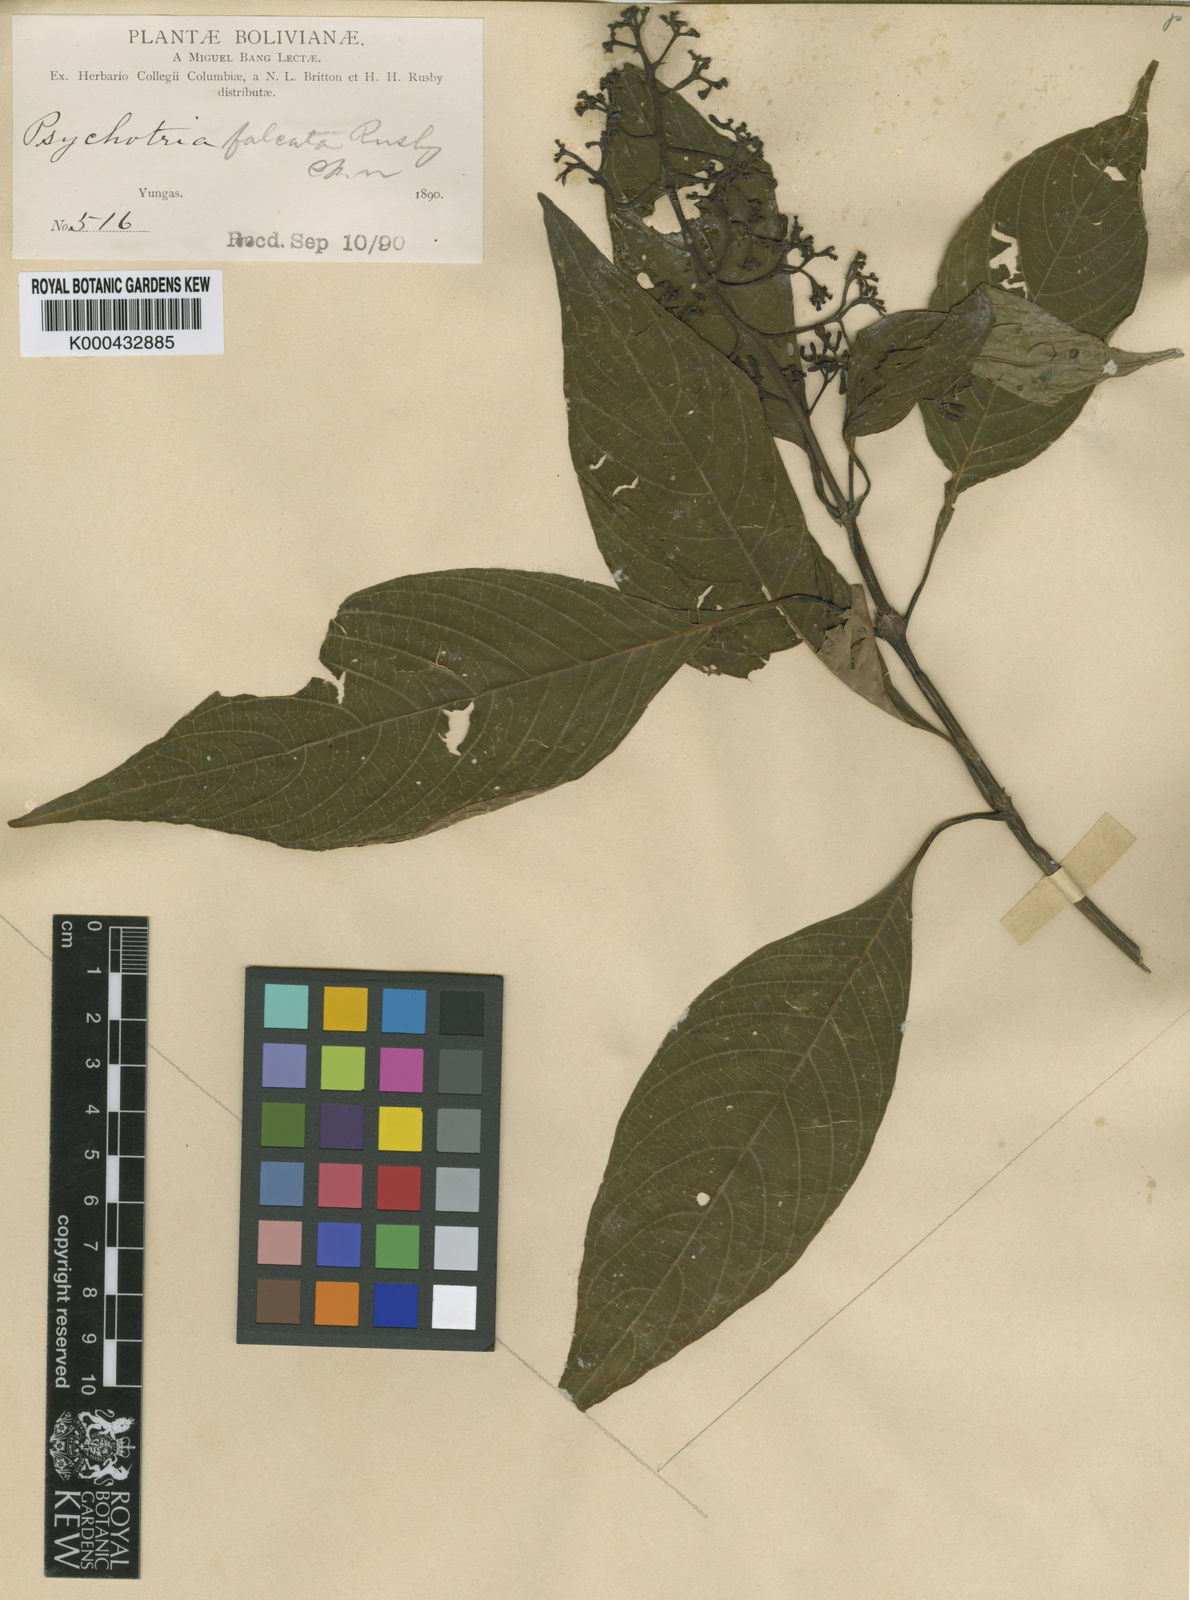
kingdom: Plantae
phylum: Tracheophyta
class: Magnoliopsida
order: Gentianales
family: Rubiaceae
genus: Palicourea
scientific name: Palicourea falcata
